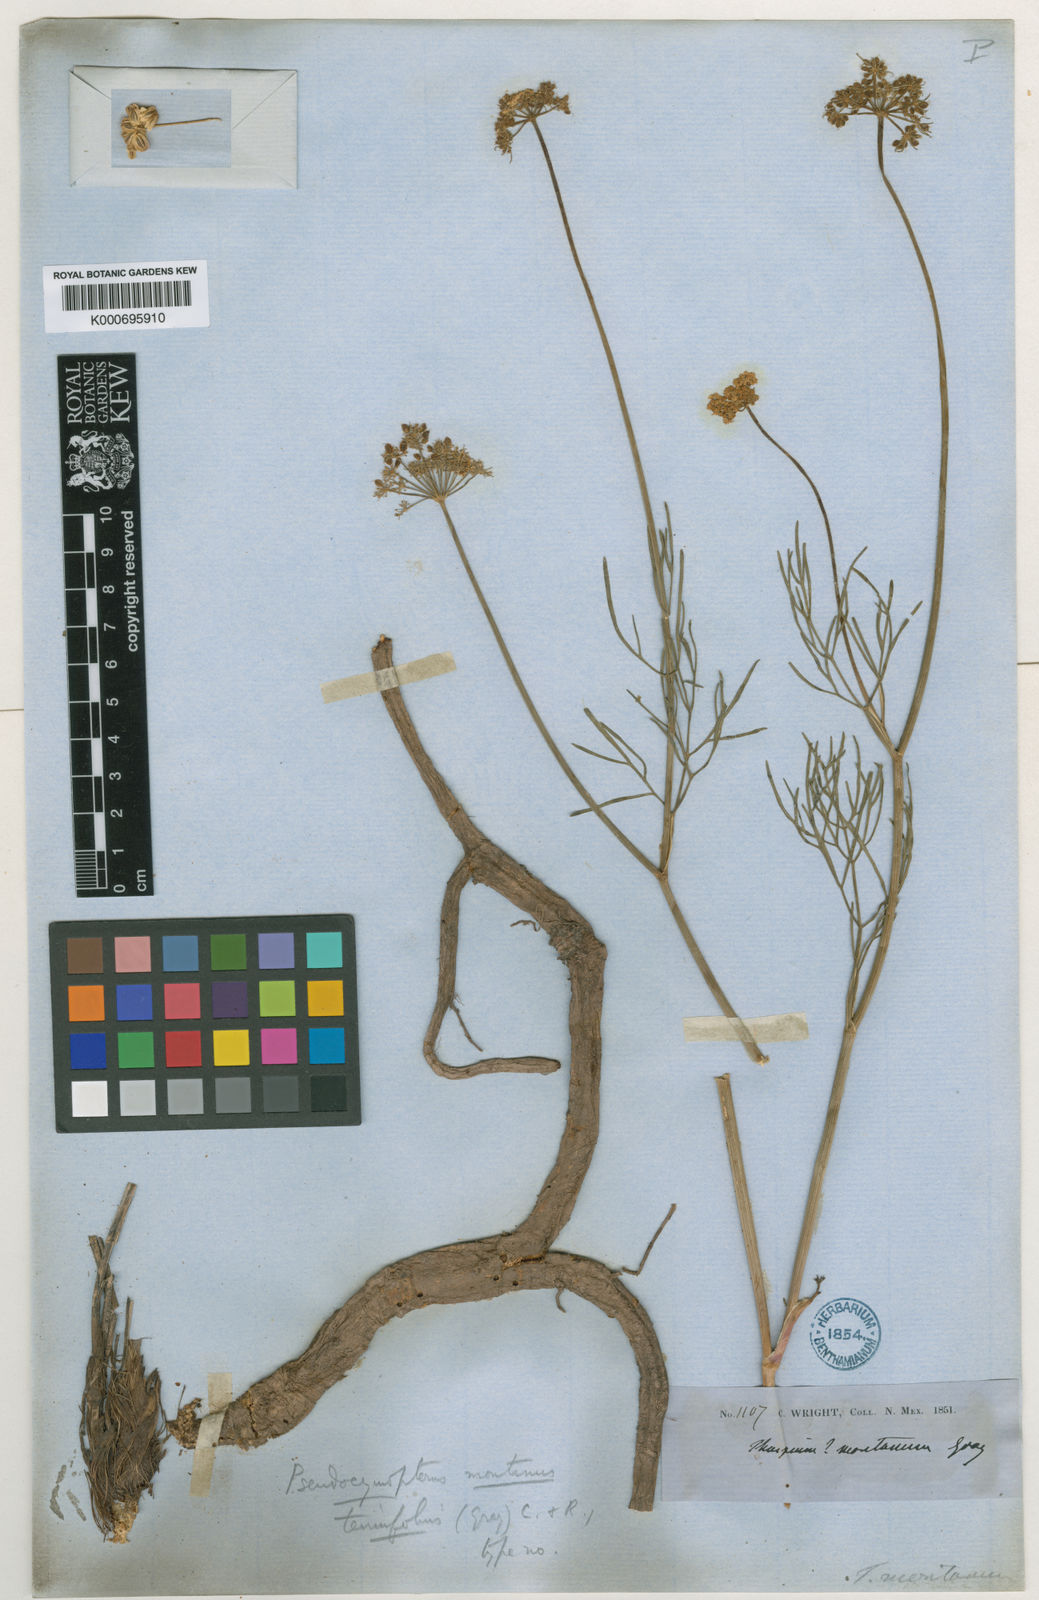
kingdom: Plantae
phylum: Tracheophyta
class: Magnoliopsida
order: Apiales
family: Apiaceae
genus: Cymopterus
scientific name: Cymopterus lemmonii
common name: Lemmon's spring-parsley
